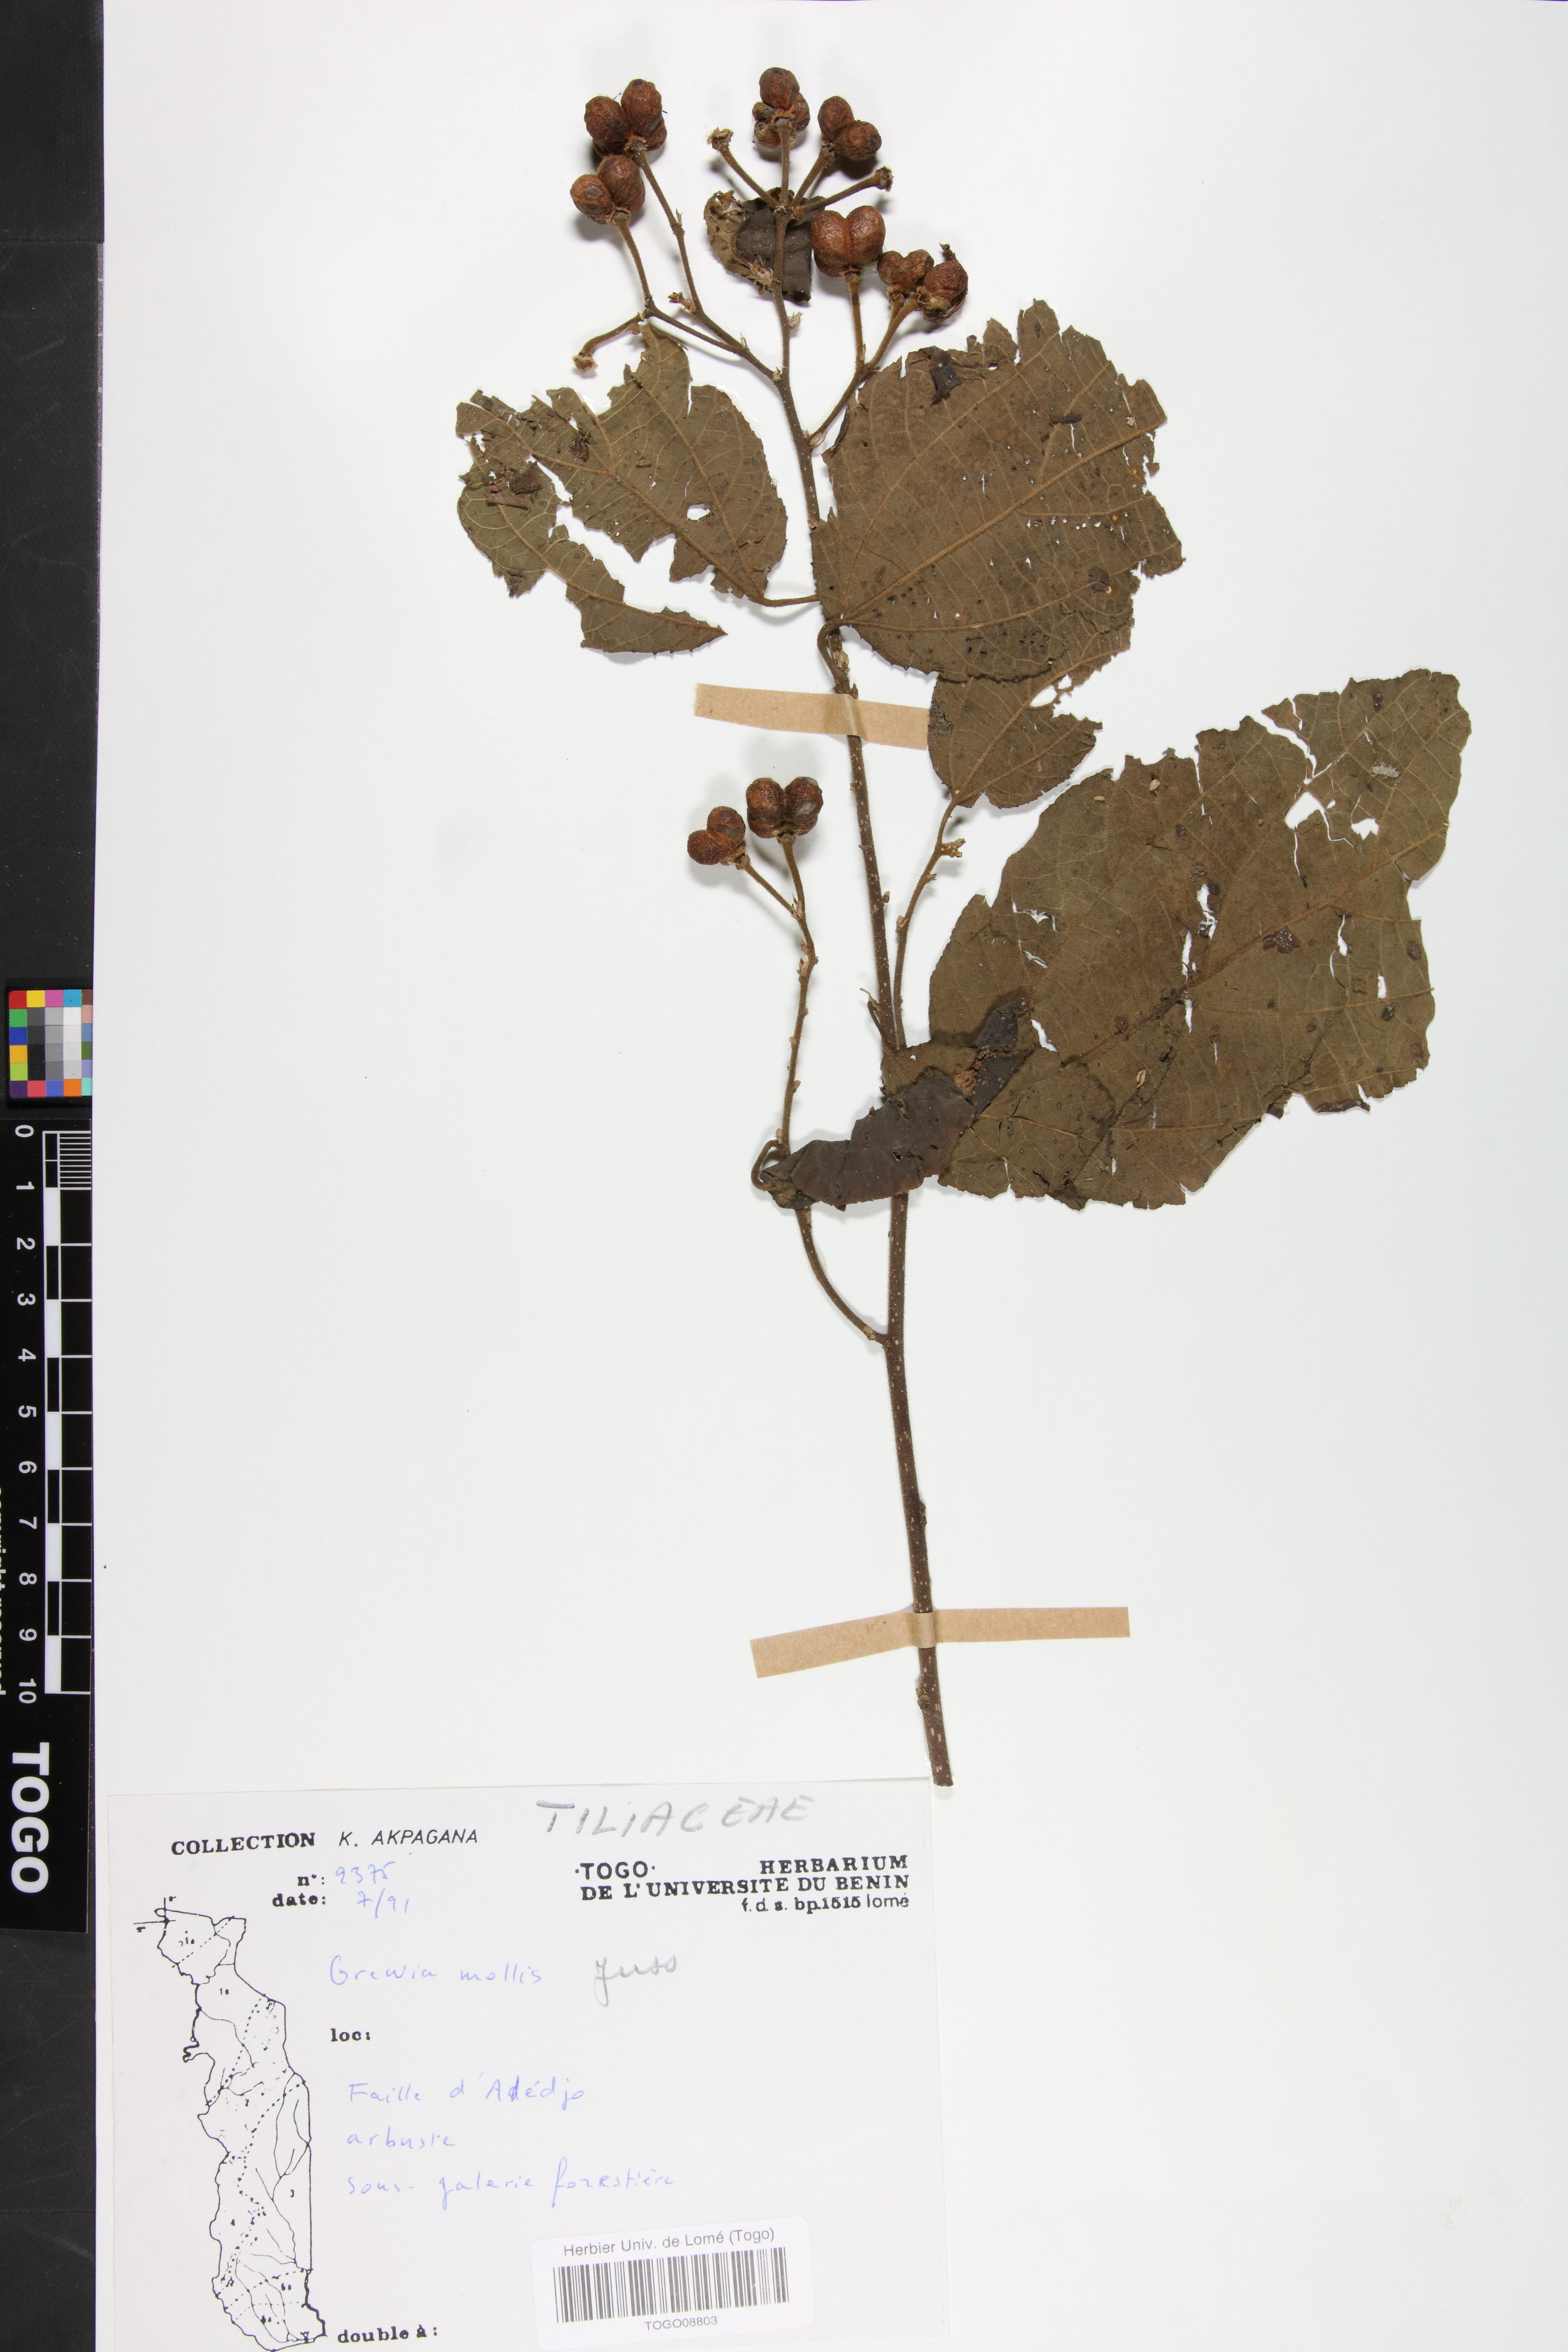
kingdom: Plantae
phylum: Tracheophyta
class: Magnoliopsida
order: Malvales
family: Malvaceae
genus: Grewia
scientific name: Grewia mollis
